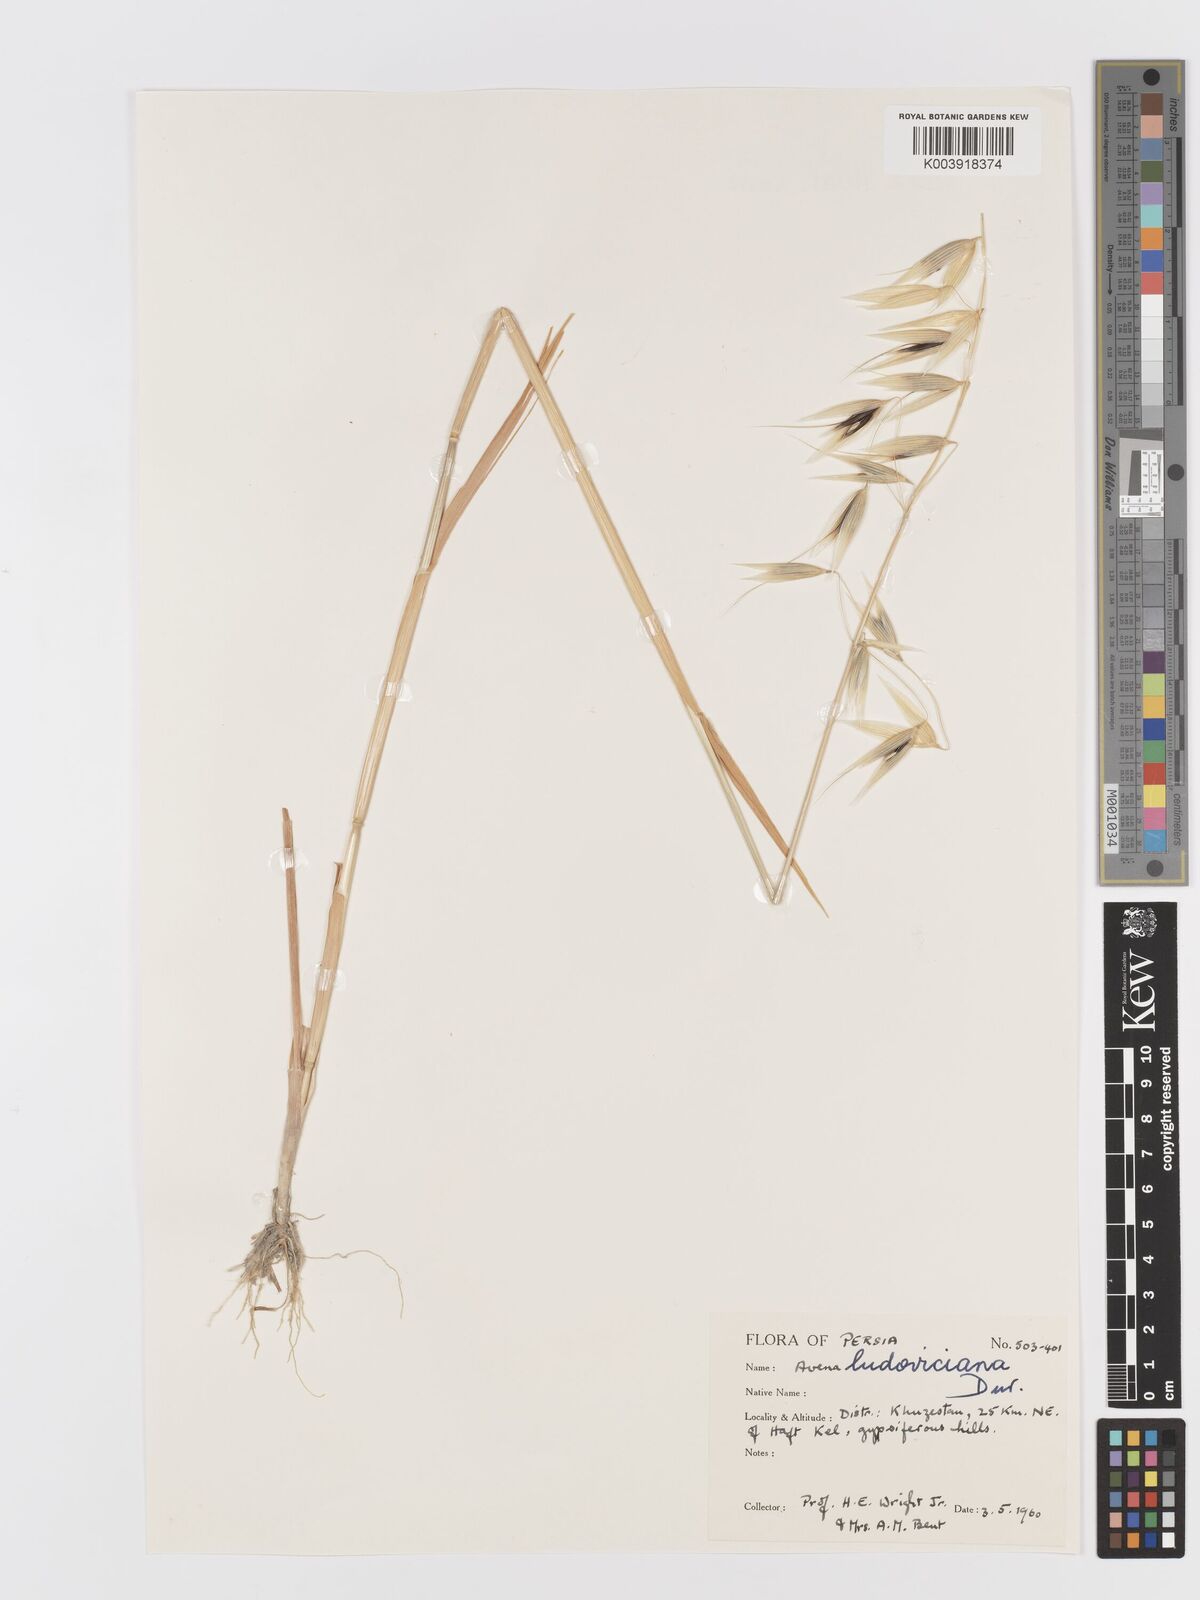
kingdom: Plantae
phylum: Tracheophyta
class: Liliopsida
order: Poales
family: Poaceae
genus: Avena
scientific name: Avena sterilis
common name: Animated oat
